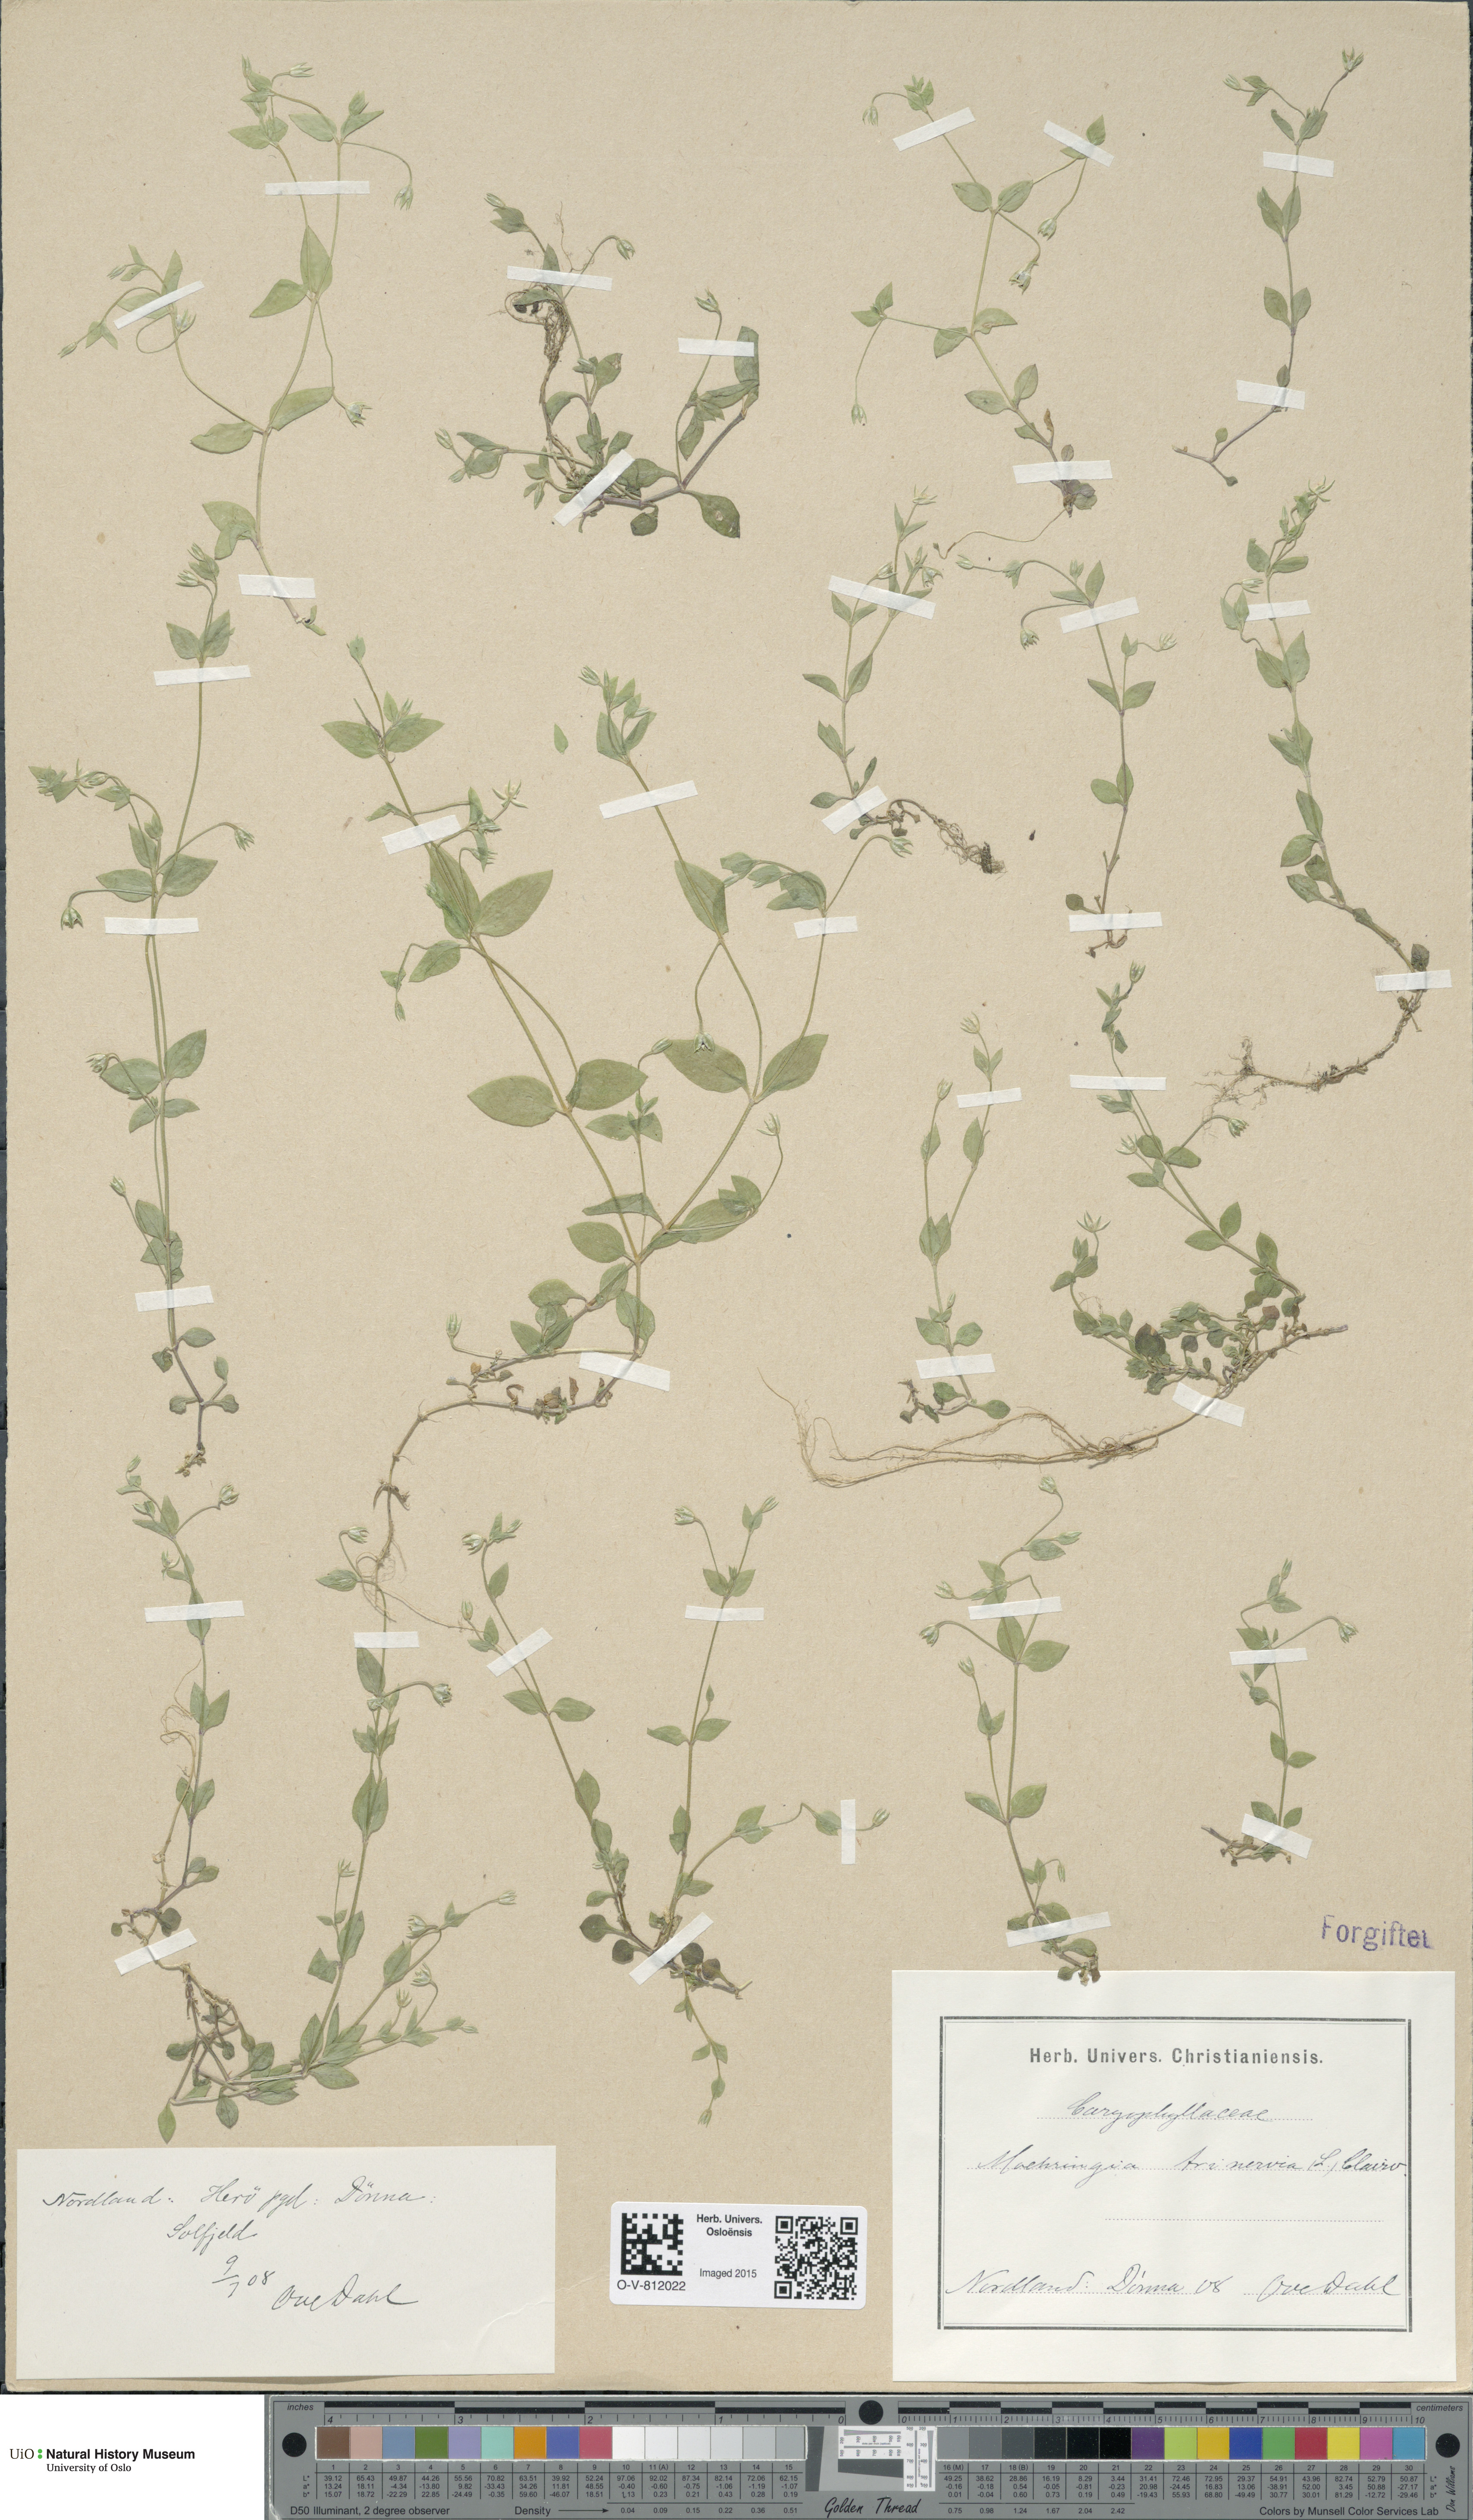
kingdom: Plantae
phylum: Tracheophyta
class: Magnoliopsida
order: Caryophyllales
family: Caryophyllaceae
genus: Moehringia
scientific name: Moehringia trinervia
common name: Three-nerved sandwort
